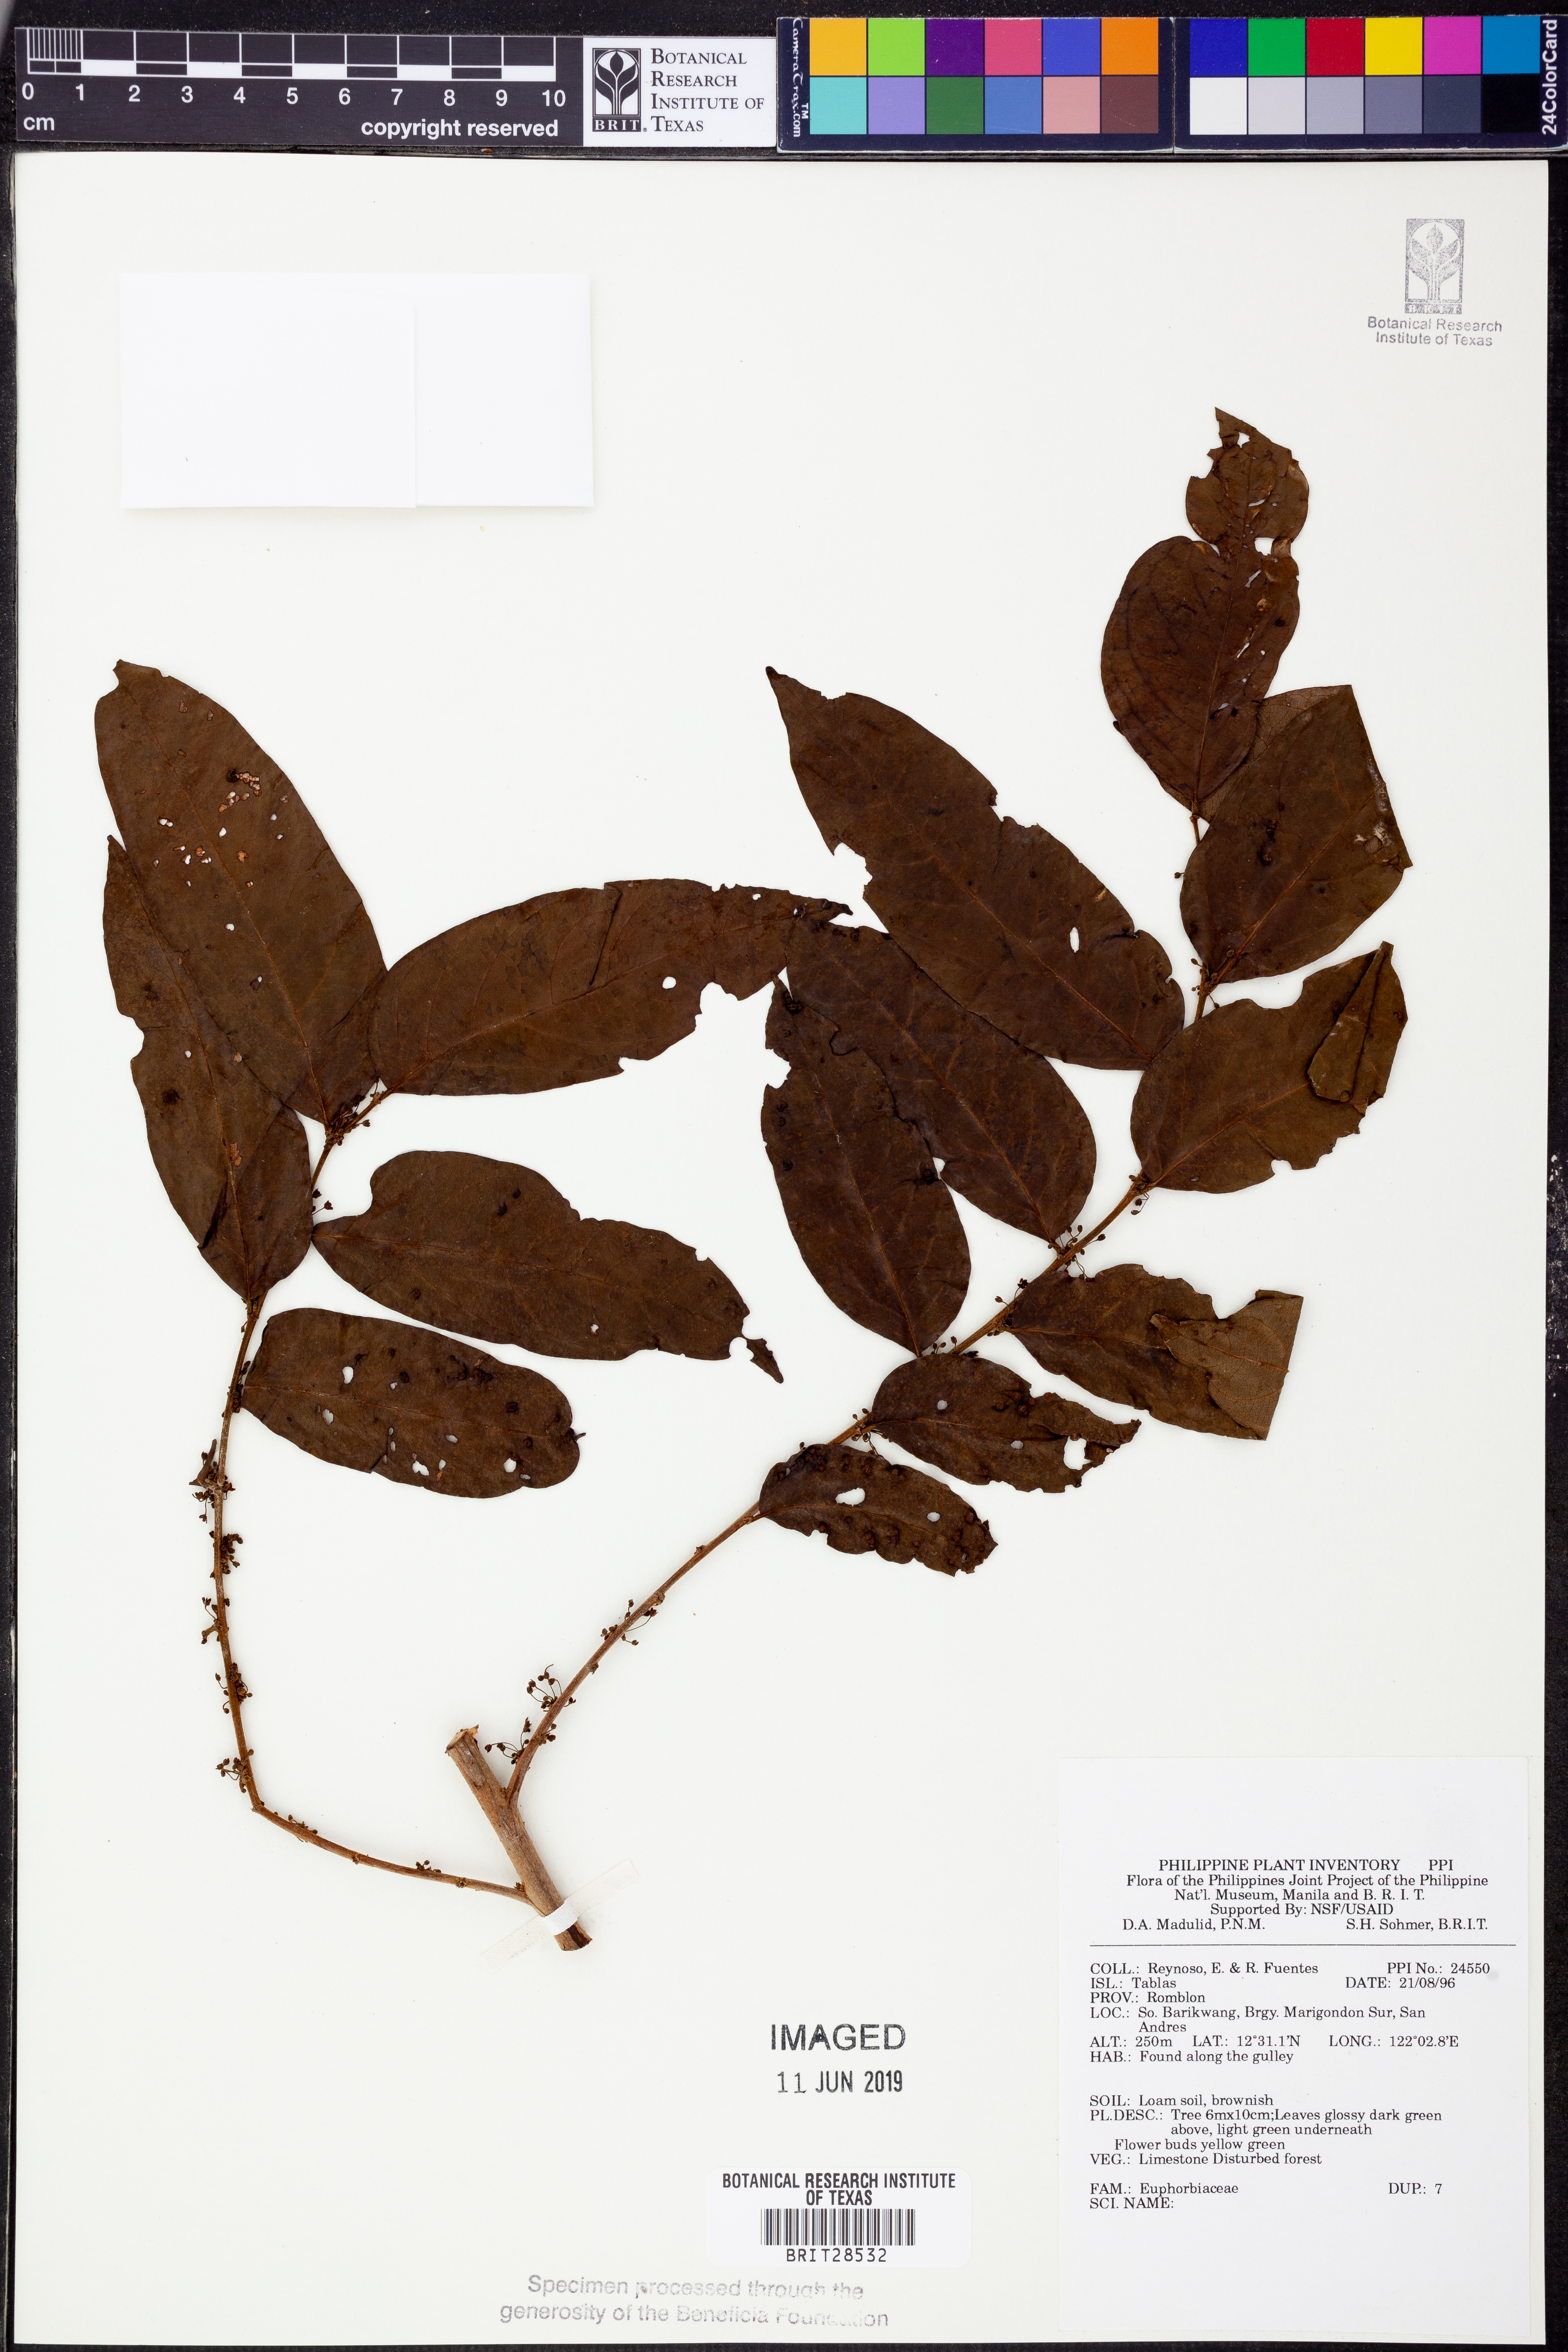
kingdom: Plantae
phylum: Tracheophyta
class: Magnoliopsida
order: Malpighiales
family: Euphorbiaceae
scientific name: Euphorbiaceae
